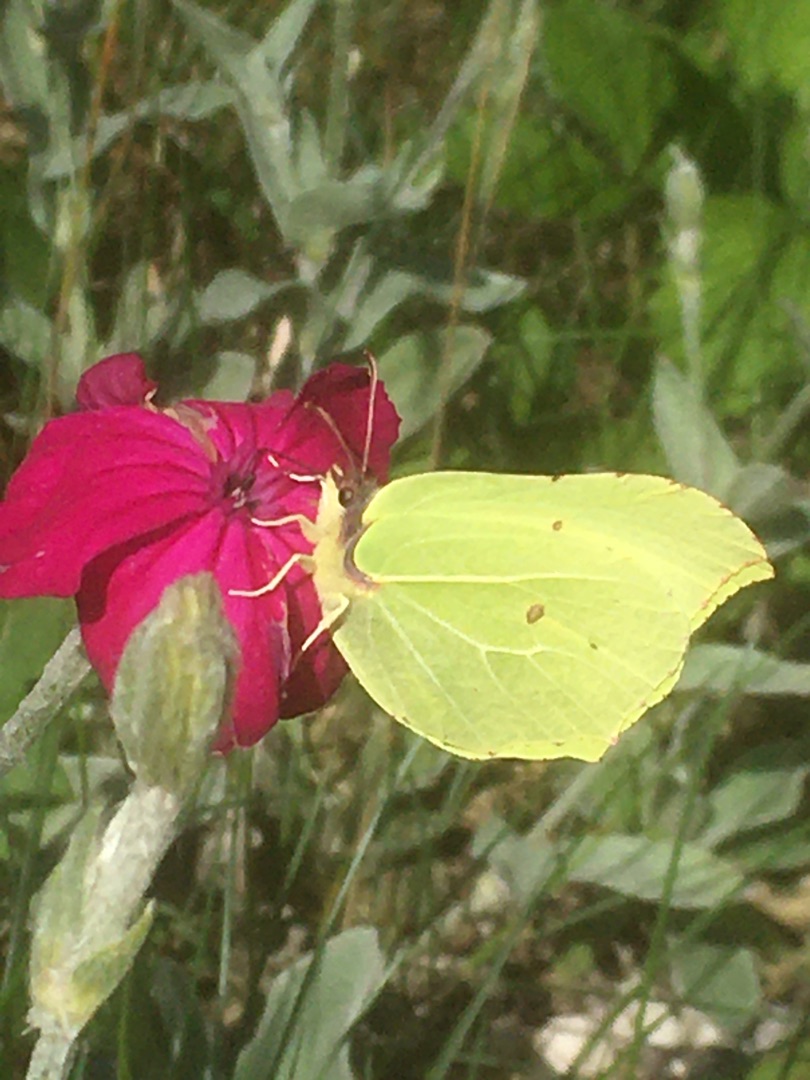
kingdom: Animalia
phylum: Arthropoda
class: Insecta
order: Lepidoptera
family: Pieridae
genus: Gonepteryx
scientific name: Gonepteryx rhamni
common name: Citronsommerfugl
